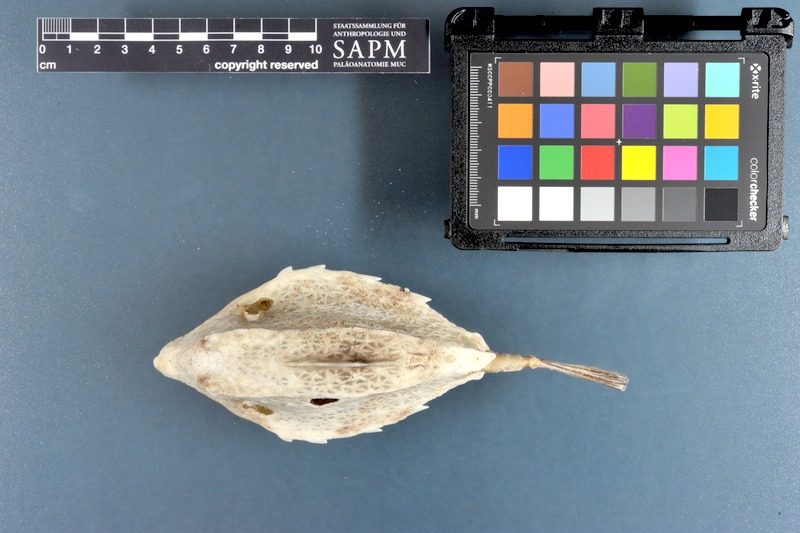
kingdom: Animalia
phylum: Chordata
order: Tetraodontiformes
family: Ostraciidae
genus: Tetrosomus
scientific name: Tetrosomus gibbosus
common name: Humpback turretfish
